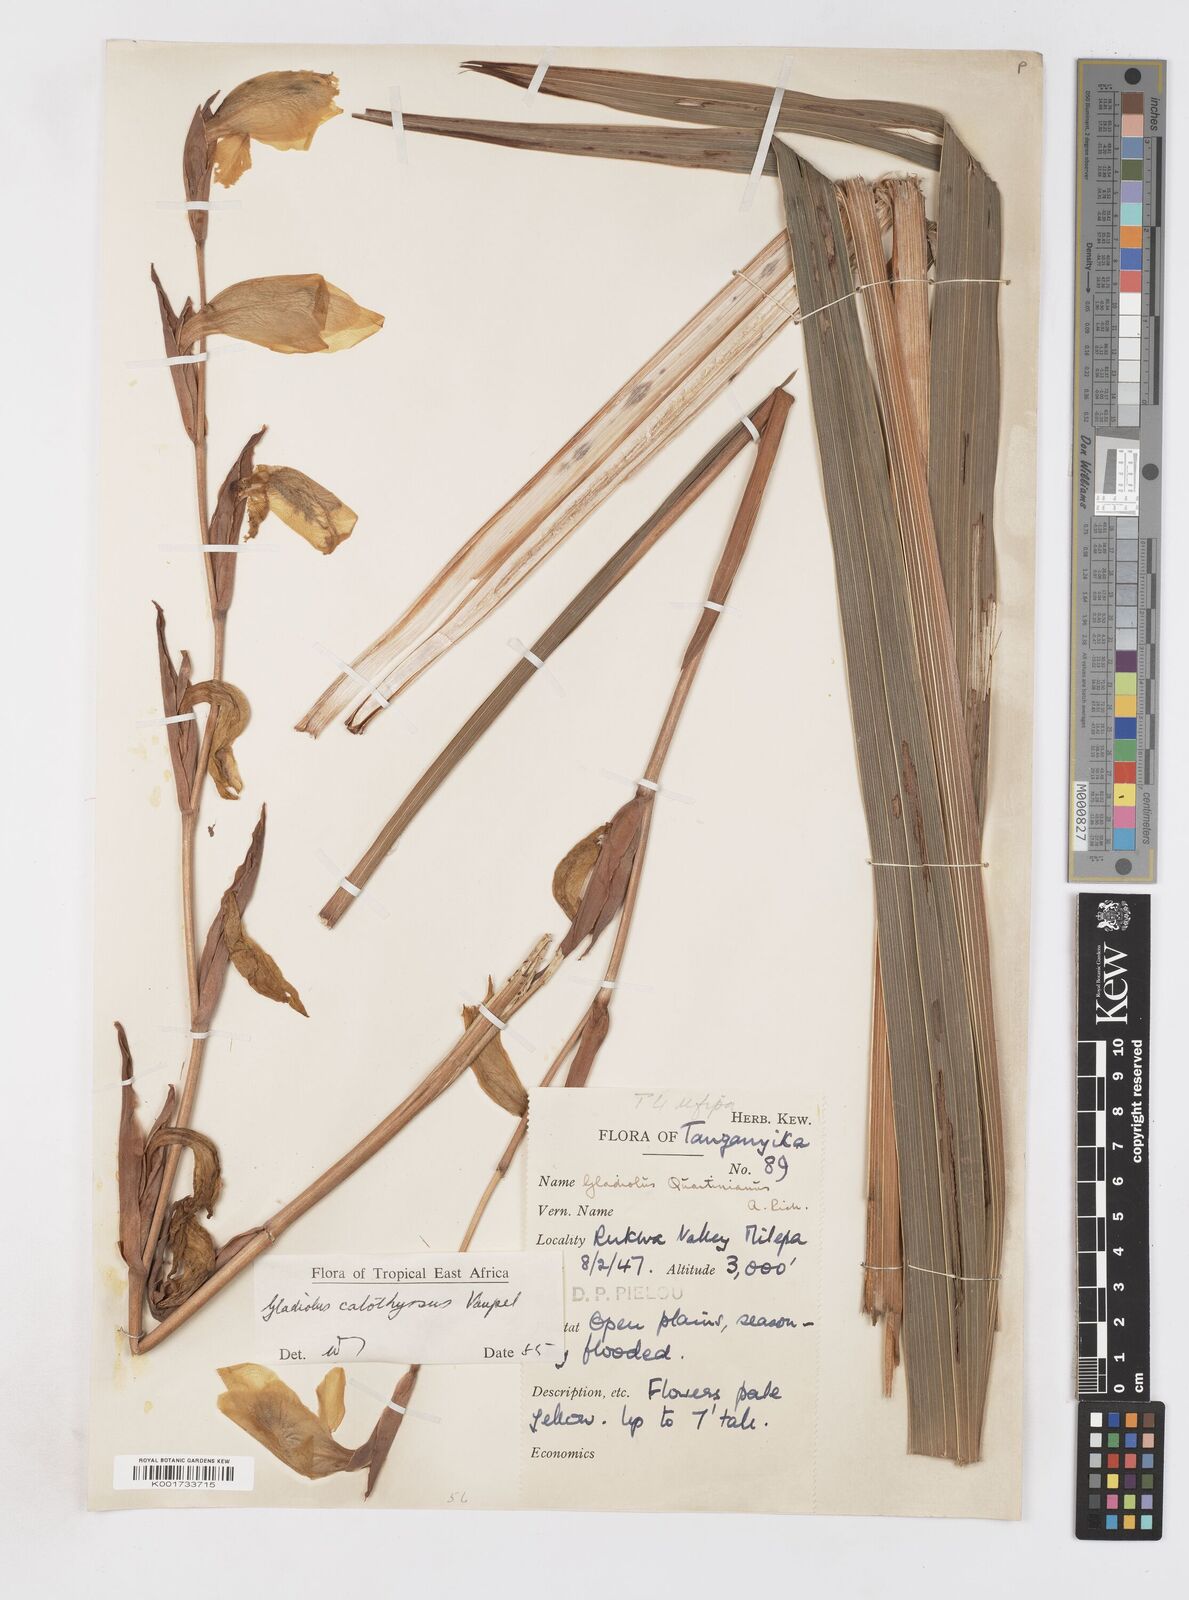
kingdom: Plantae
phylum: Tracheophyta
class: Liliopsida
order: Asparagales
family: Iridaceae
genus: Gladiolus
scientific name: Gladiolus dalenii
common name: Cornflag
